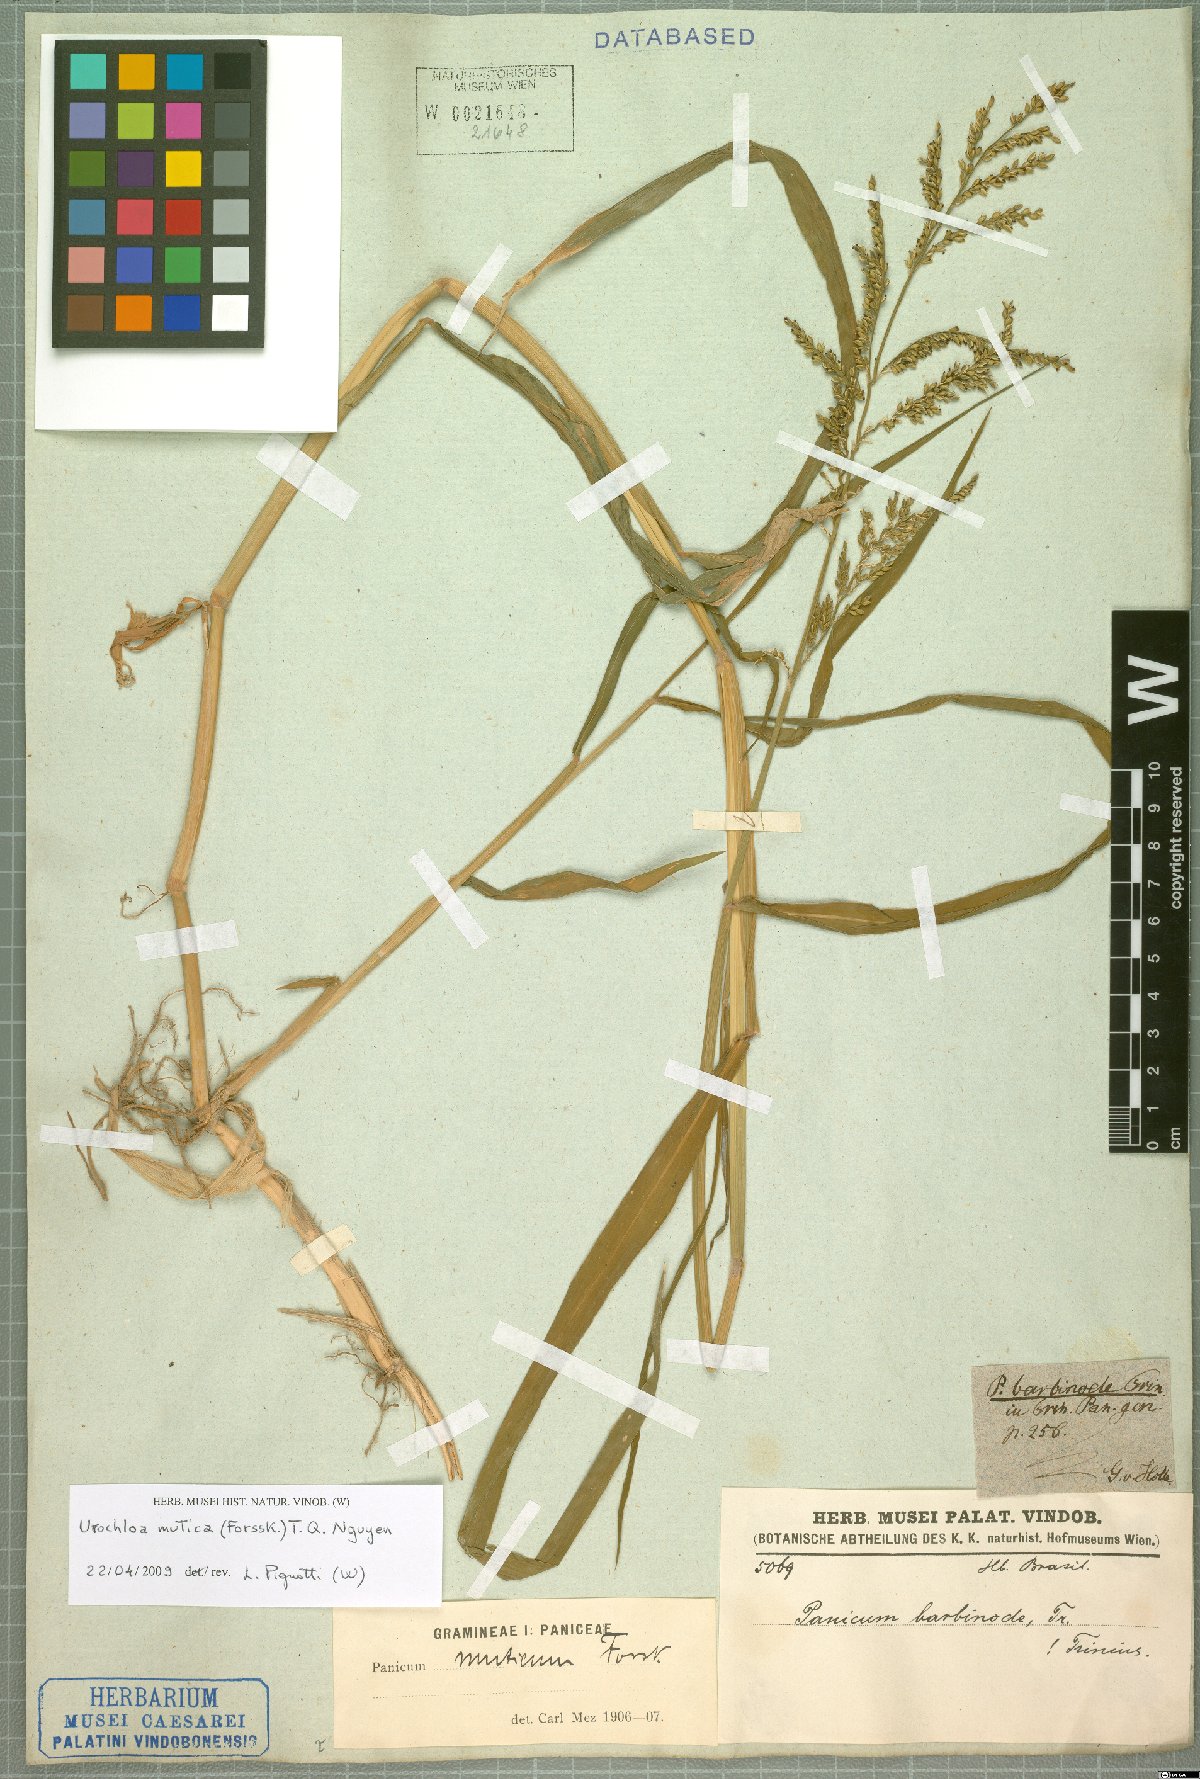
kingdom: Plantae
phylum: Tracheophyta
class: Liliopsida
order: Poales
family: Poaceae
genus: Urochloa
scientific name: Urochloa mutica
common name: Para grass
